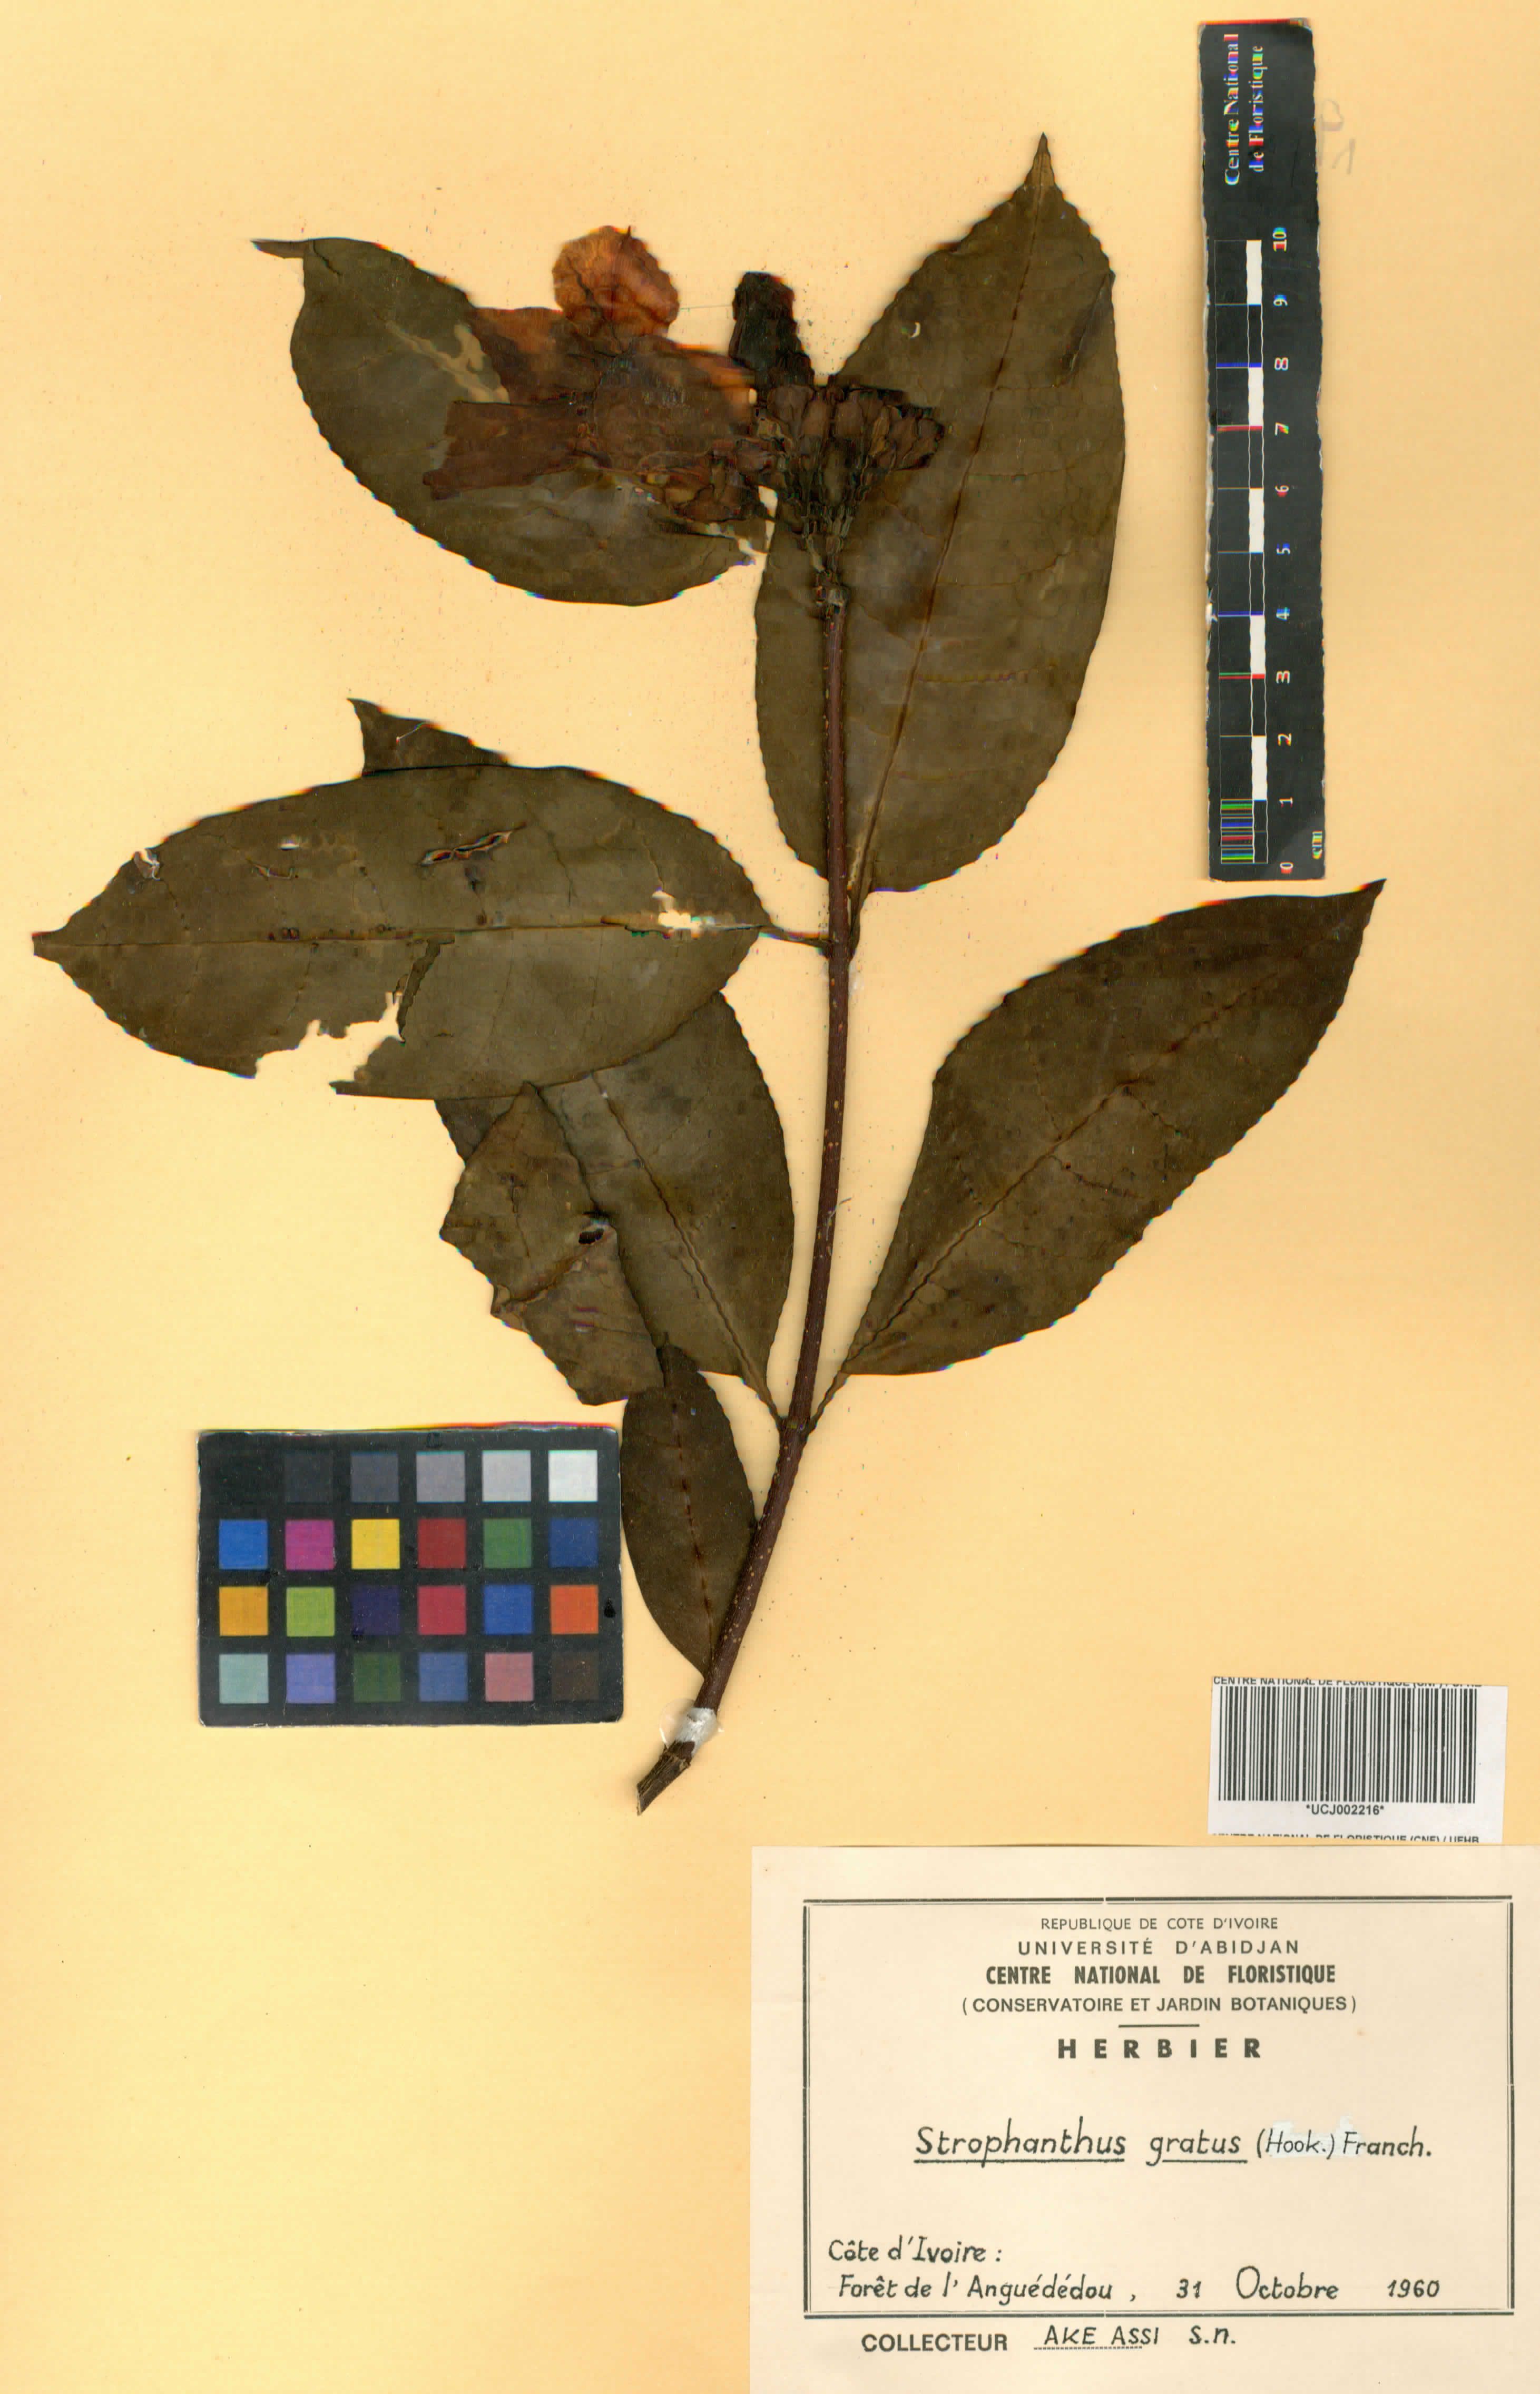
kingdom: Plantae
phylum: Tracheophyta
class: Magnoliopsida
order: Gentianales
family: Apocynaceae
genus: Strophanthus
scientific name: Strophanthus gratus
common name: Climbing-oleander
